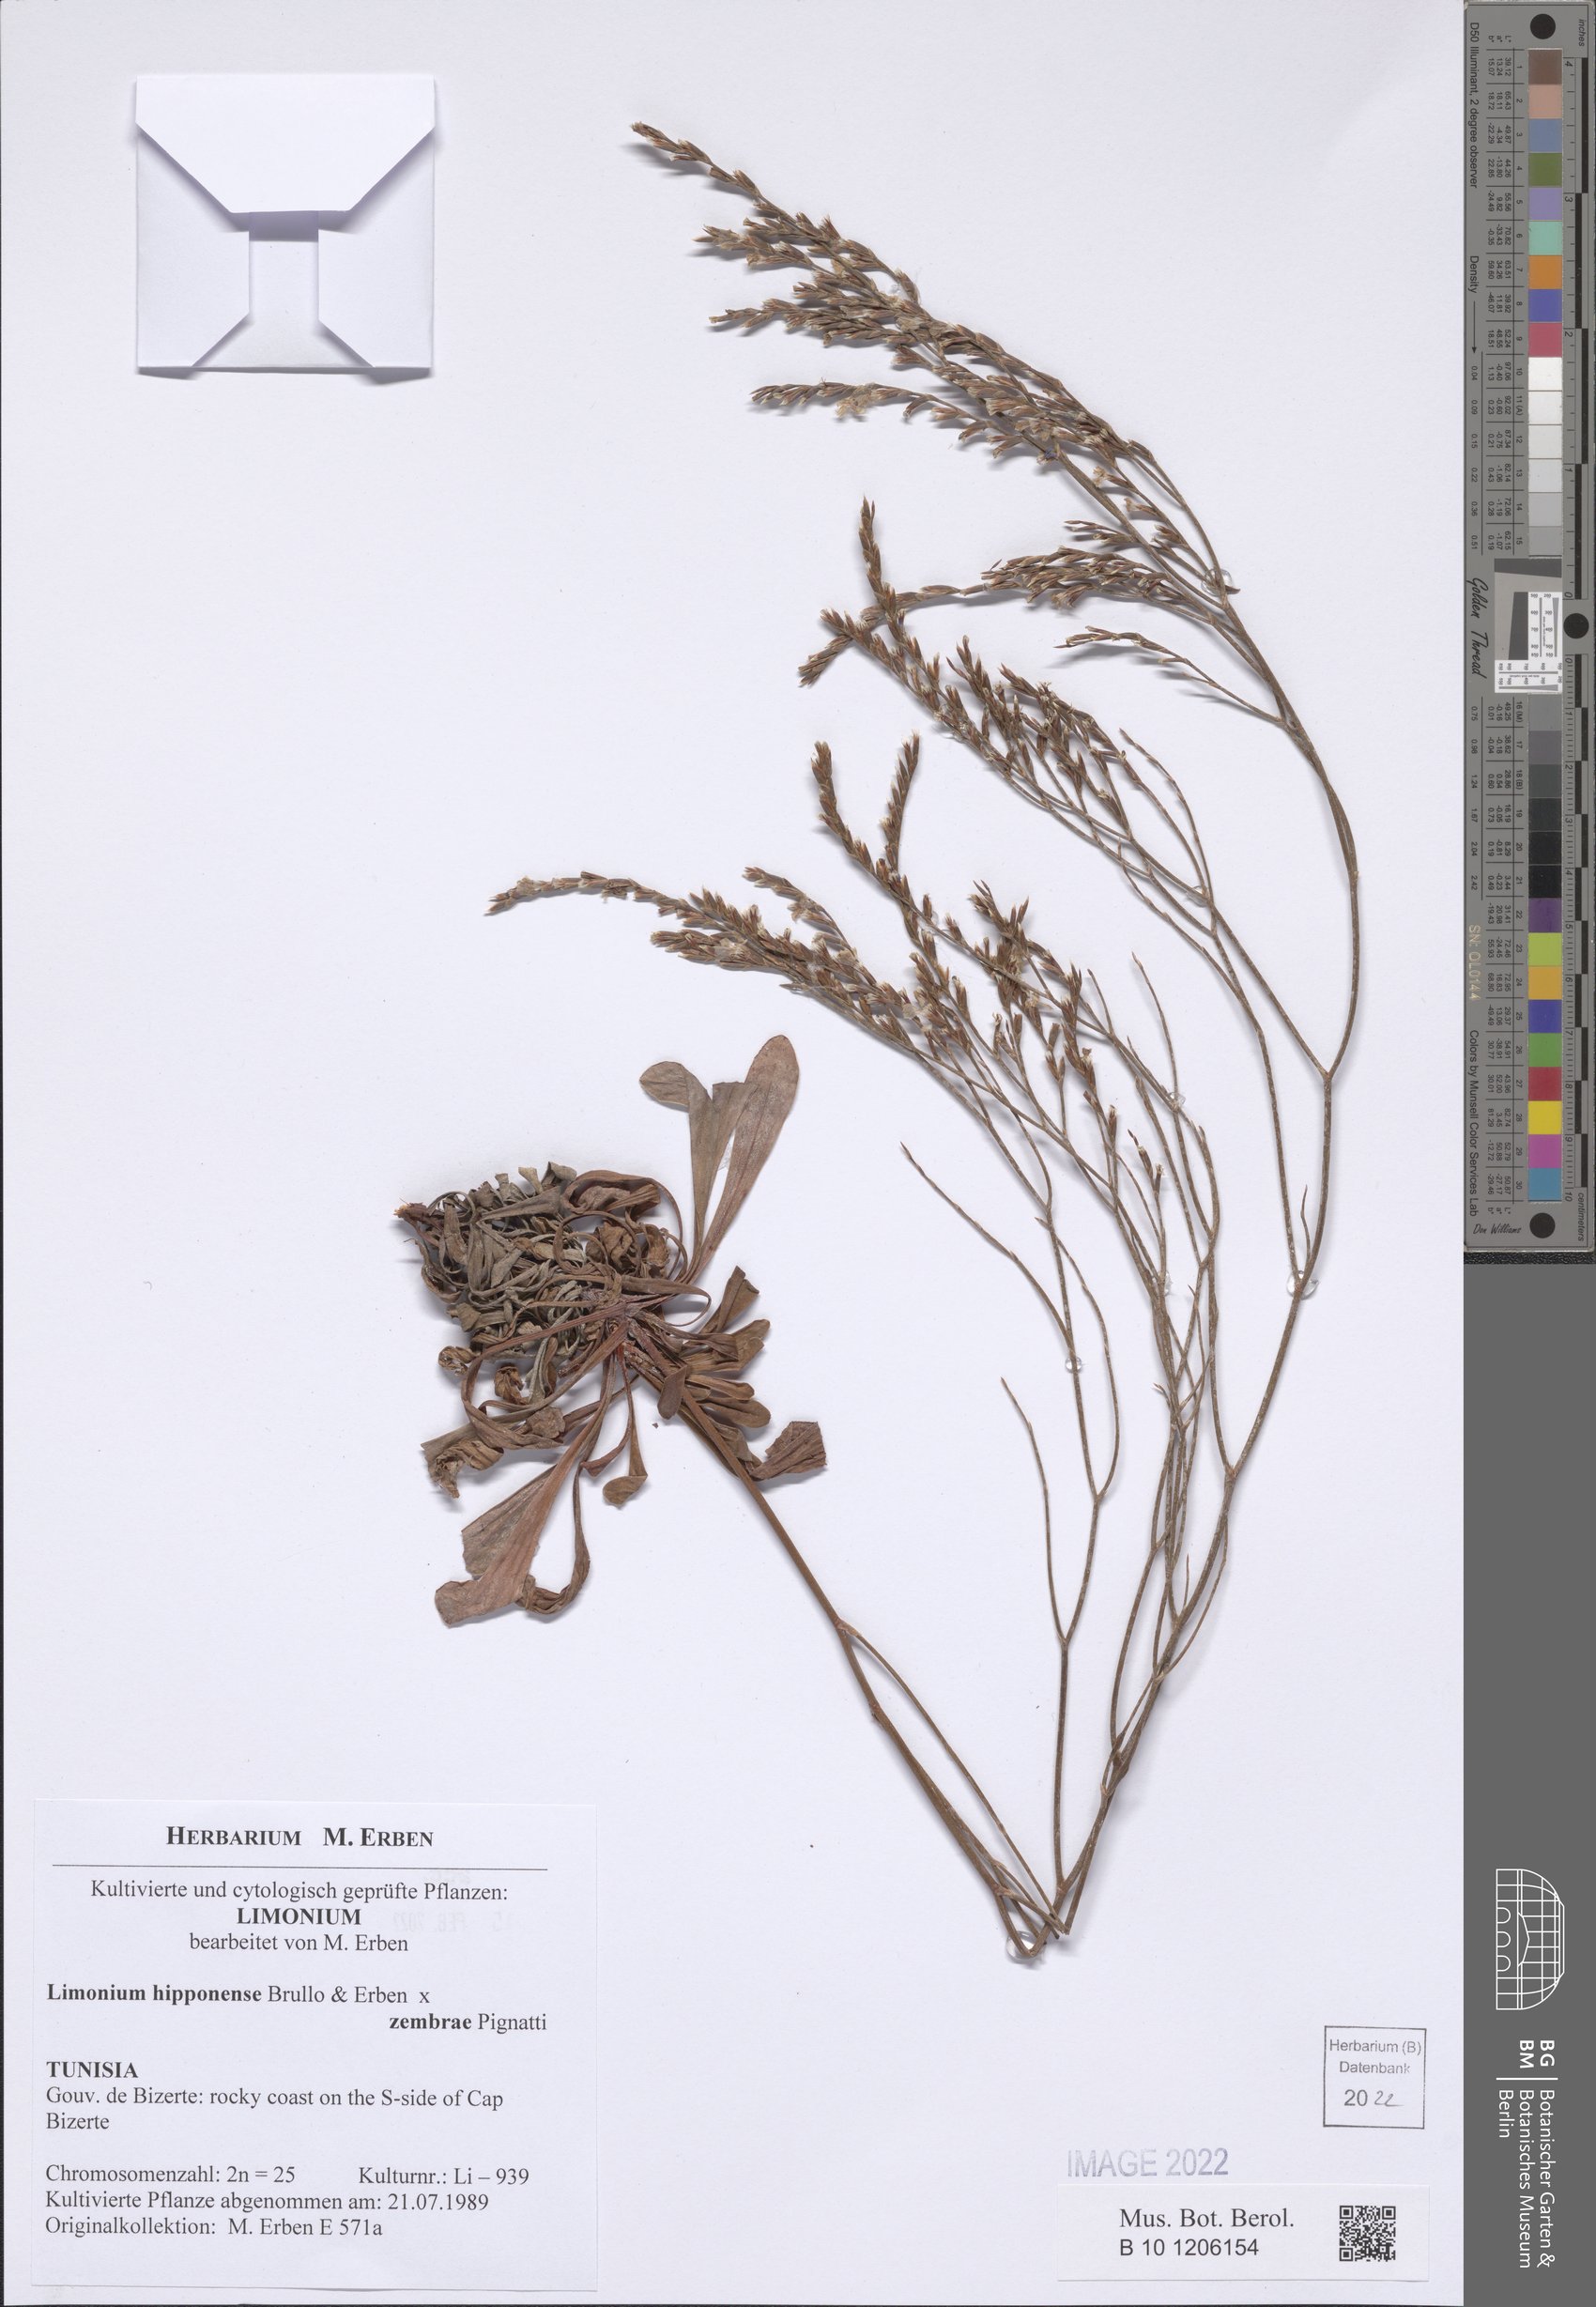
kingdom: Plantae
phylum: Tracheophyta
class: Magnoliopsida
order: Caryophyllales
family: Plumbaginaceae
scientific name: Plumbaginaceae
